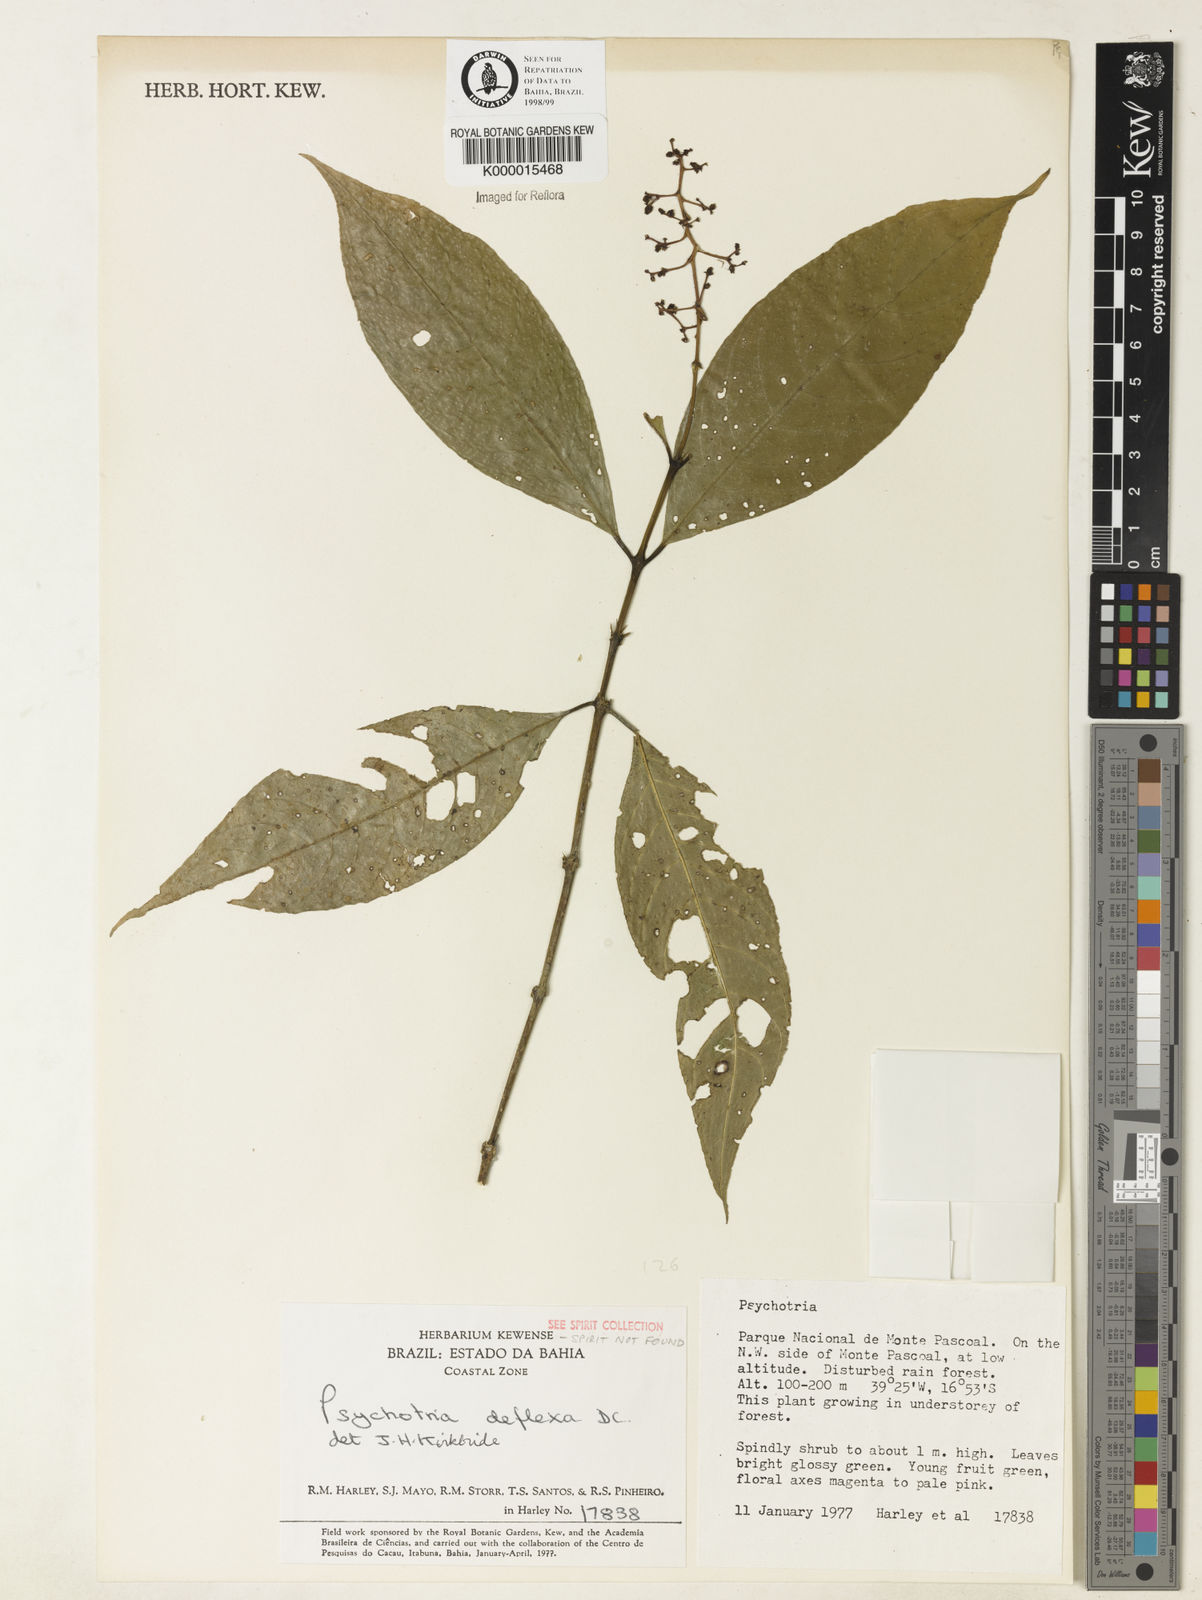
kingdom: Plantae
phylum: Tracheophyta
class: Magnoliopsida
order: Gentianales
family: Rubiaceae
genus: Palicourea
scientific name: Palicourea deflexa
